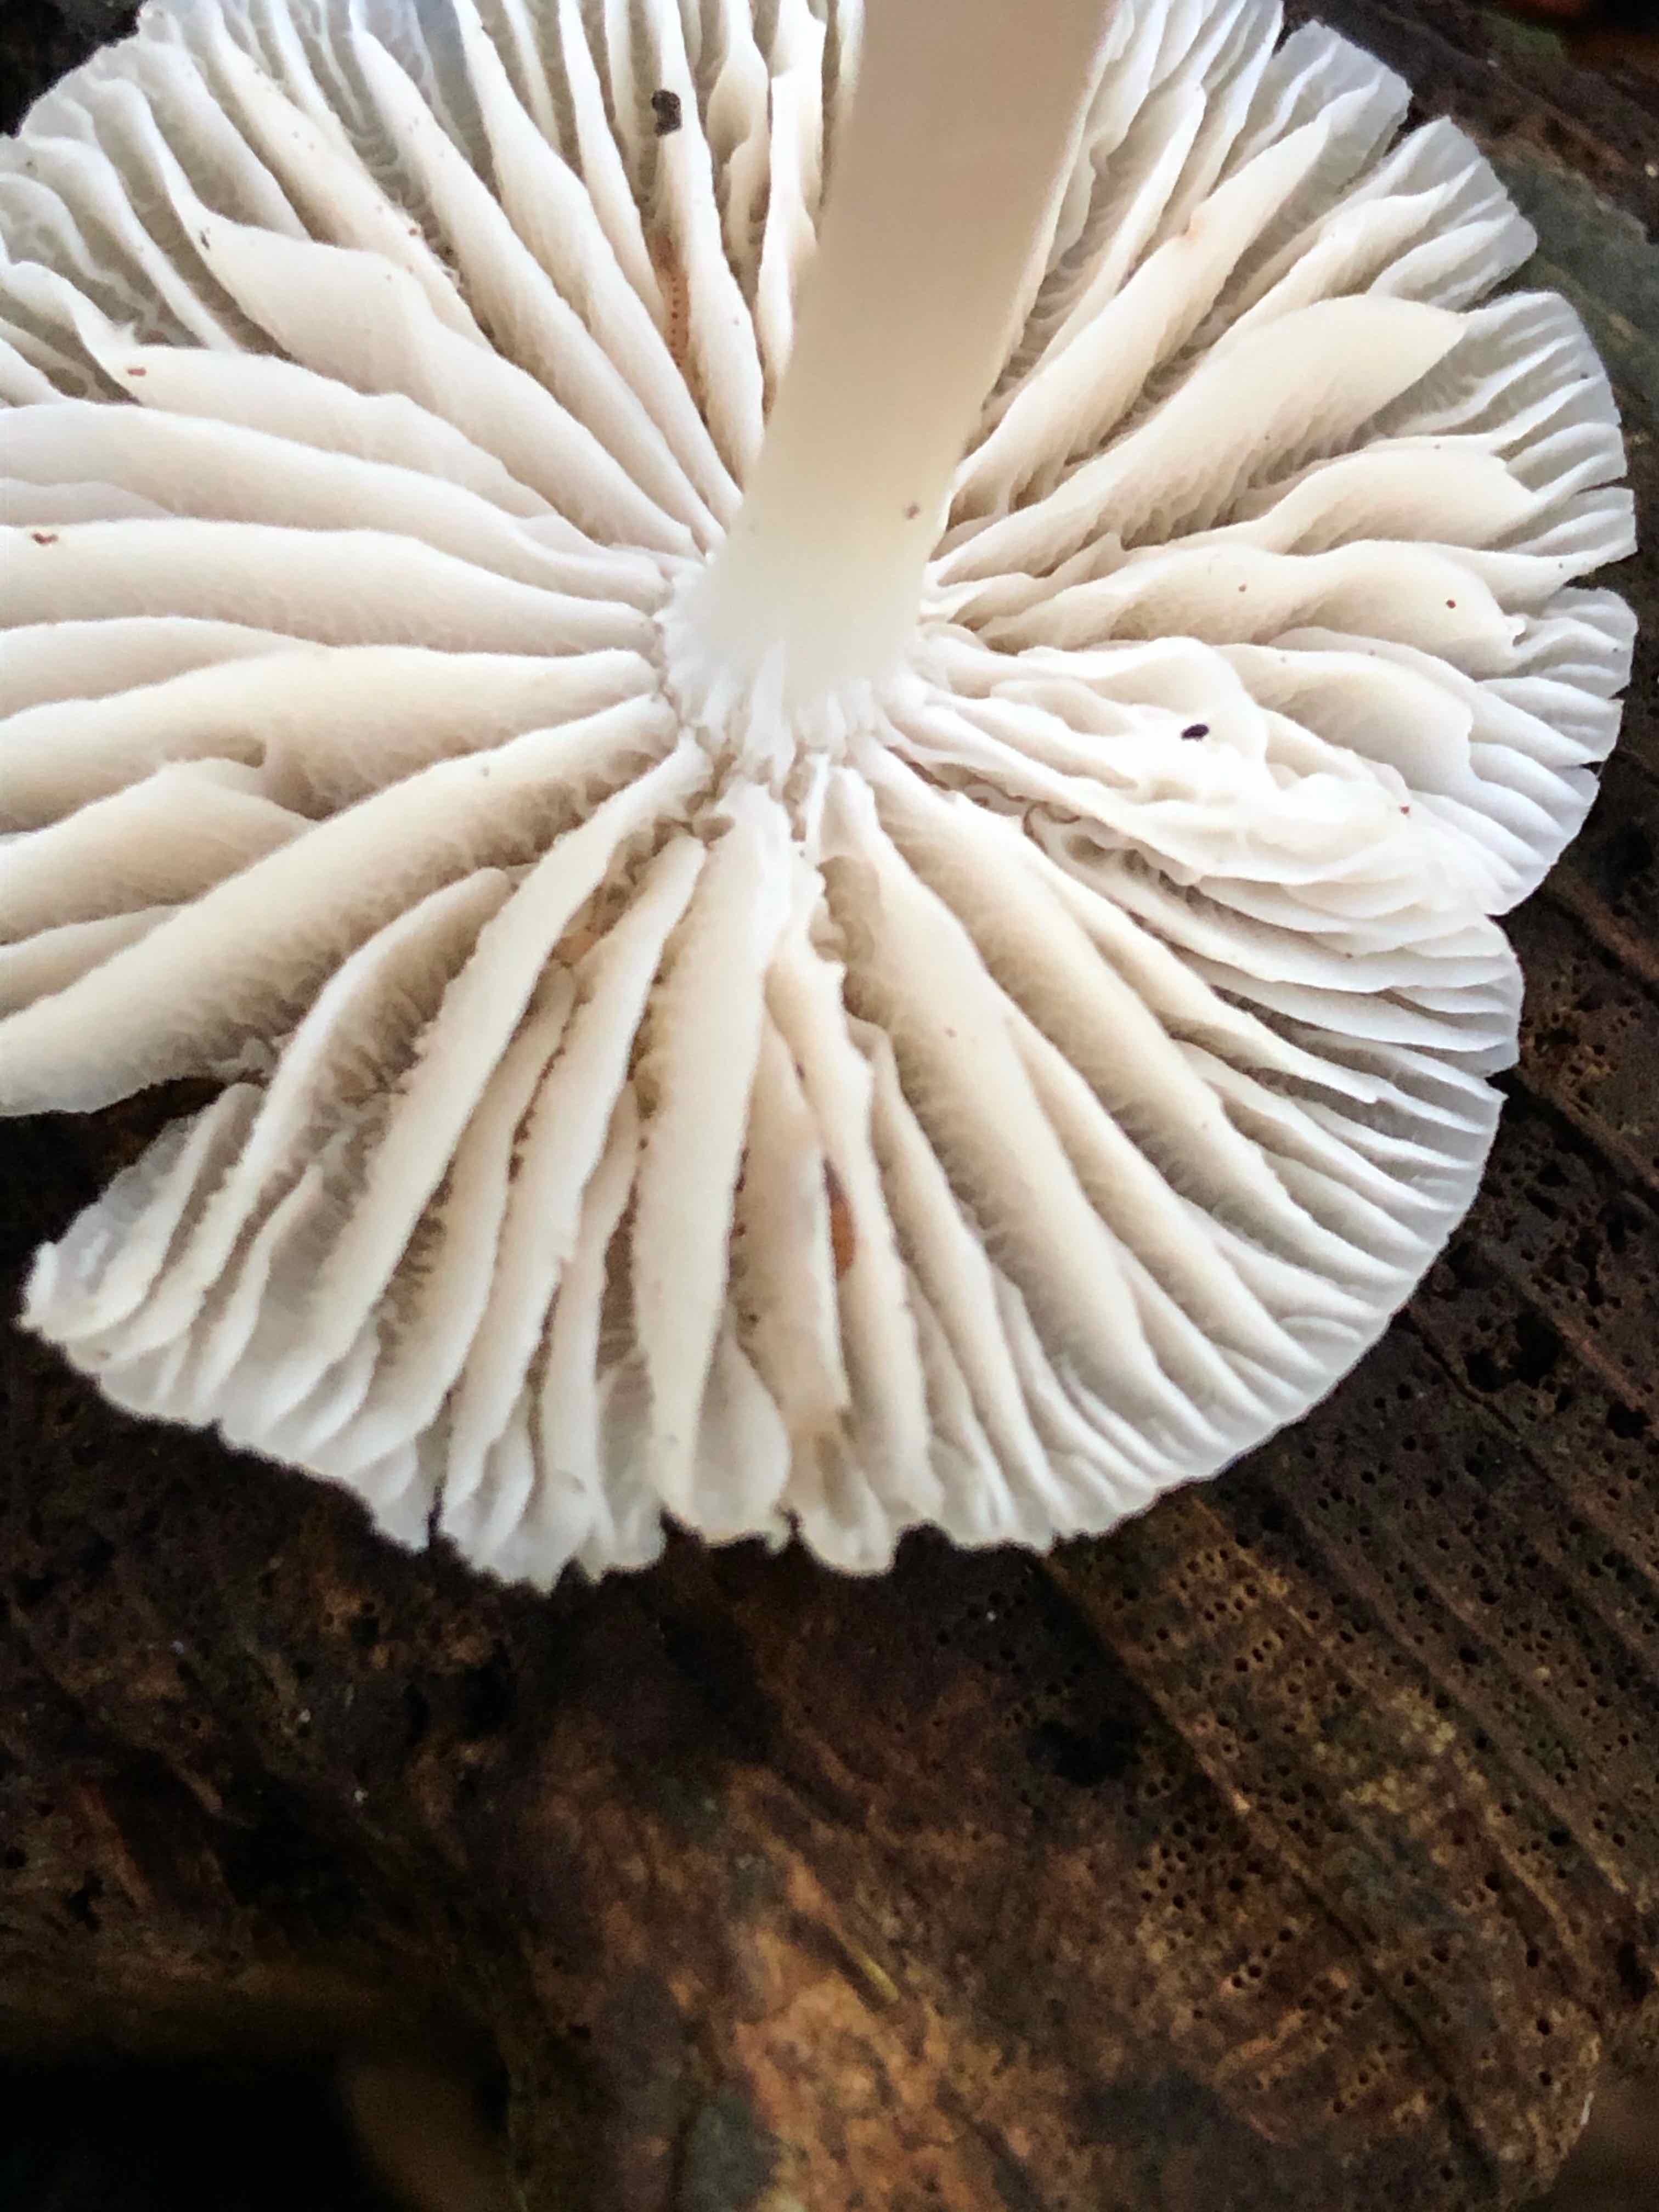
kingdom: Fungi
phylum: Basidiomycota
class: Agaricomycetes
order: Agaricales
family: Mycenaceae
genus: Mycena
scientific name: Mycena galericulata
